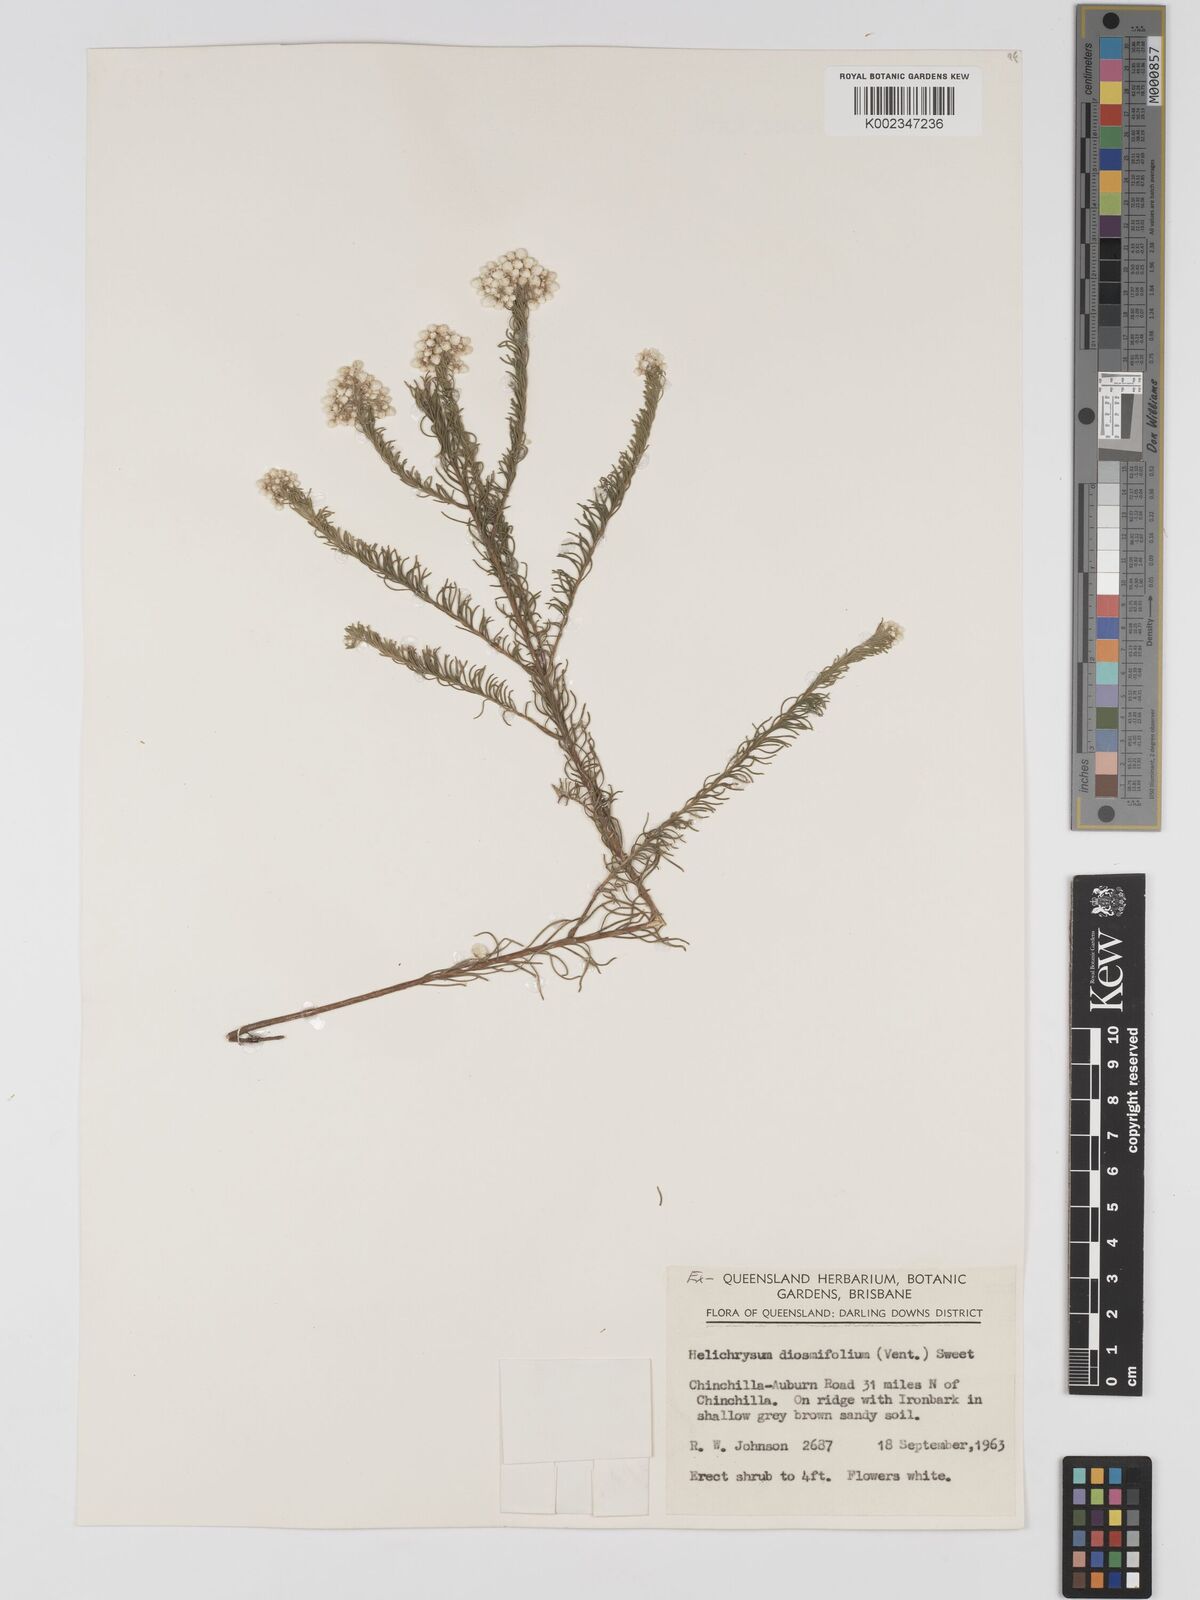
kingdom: Plantae
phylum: Tracheophyta
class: Magnoliopsida
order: Asterales
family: Asteraceae
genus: Ozothamnus
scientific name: Ozothamnus diosmifolius
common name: White-dogwood
